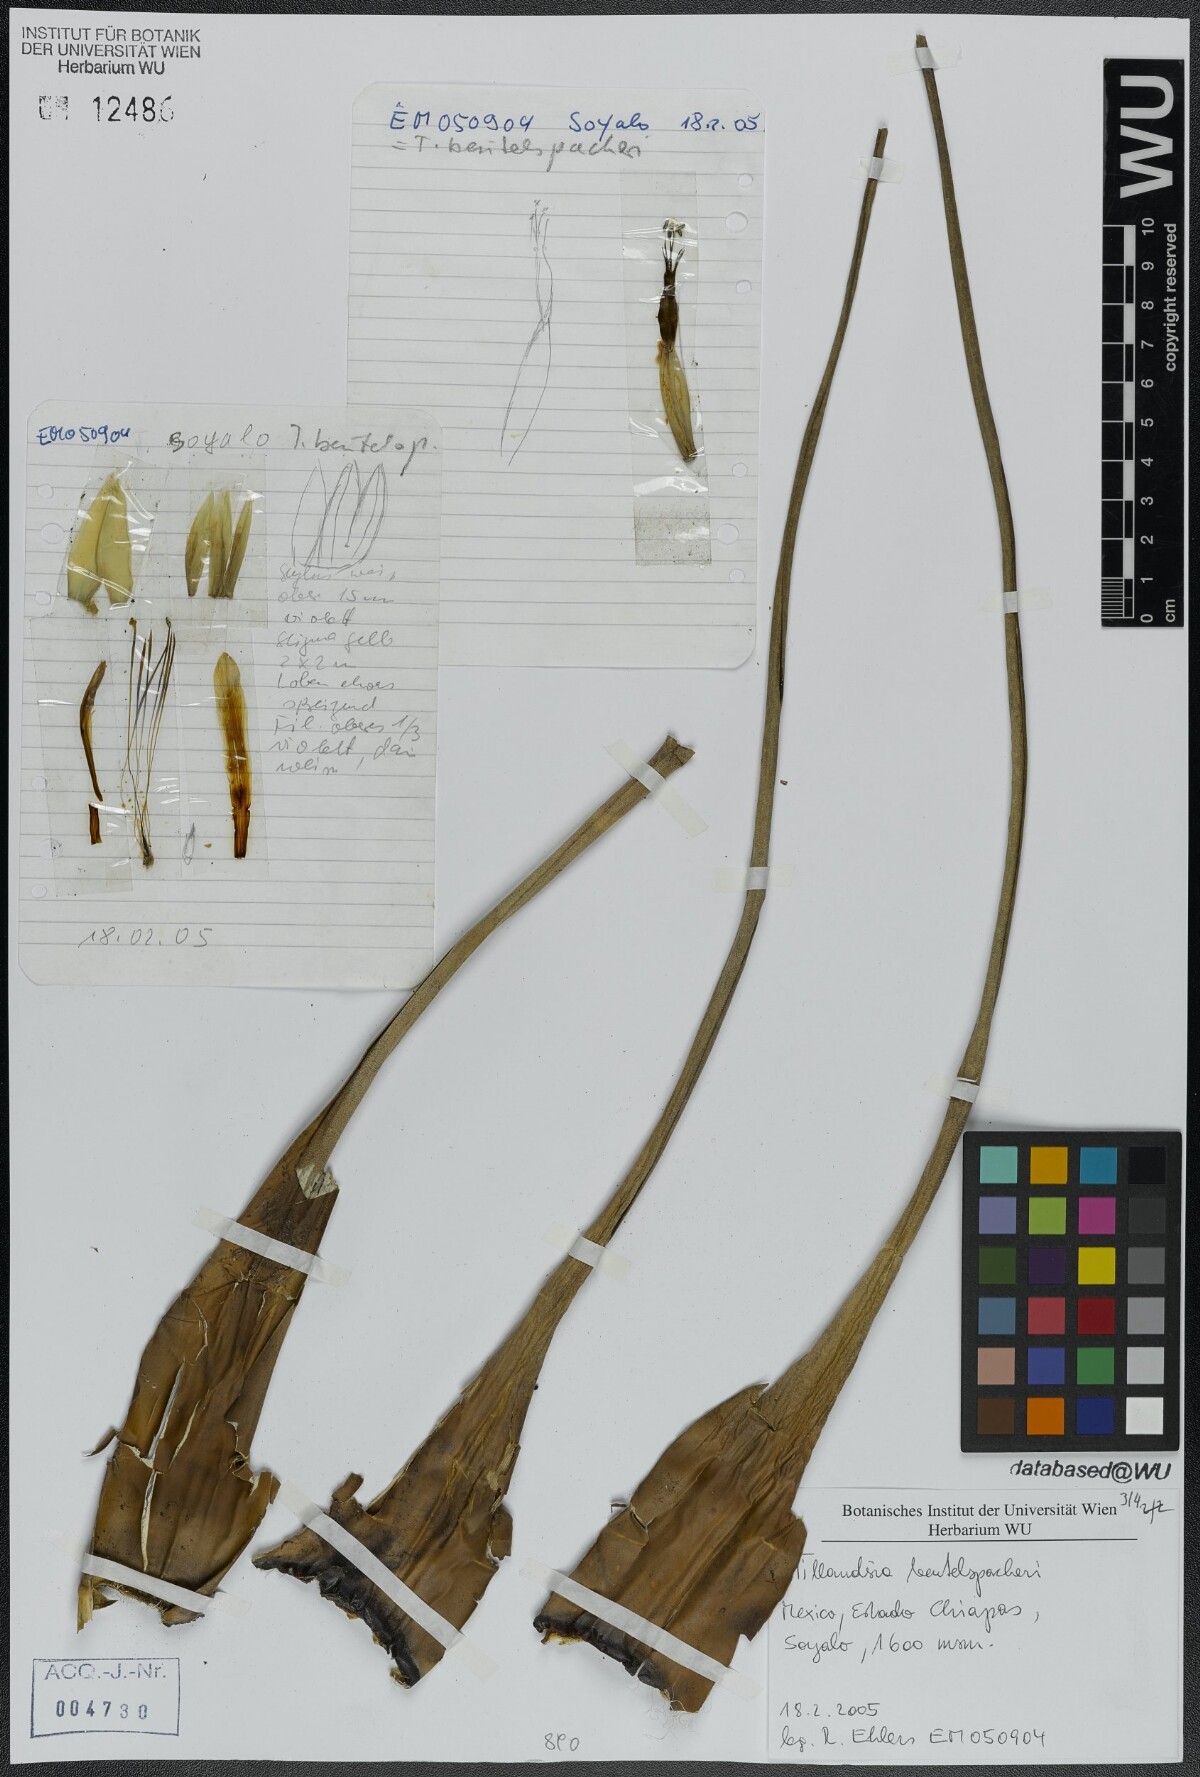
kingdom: Plantae
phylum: Tracheophyta
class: Liliopsida
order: Poales
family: Bromeliaceae
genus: Tillandsia
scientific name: Tillandsia fasciculata
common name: Giant airplant
